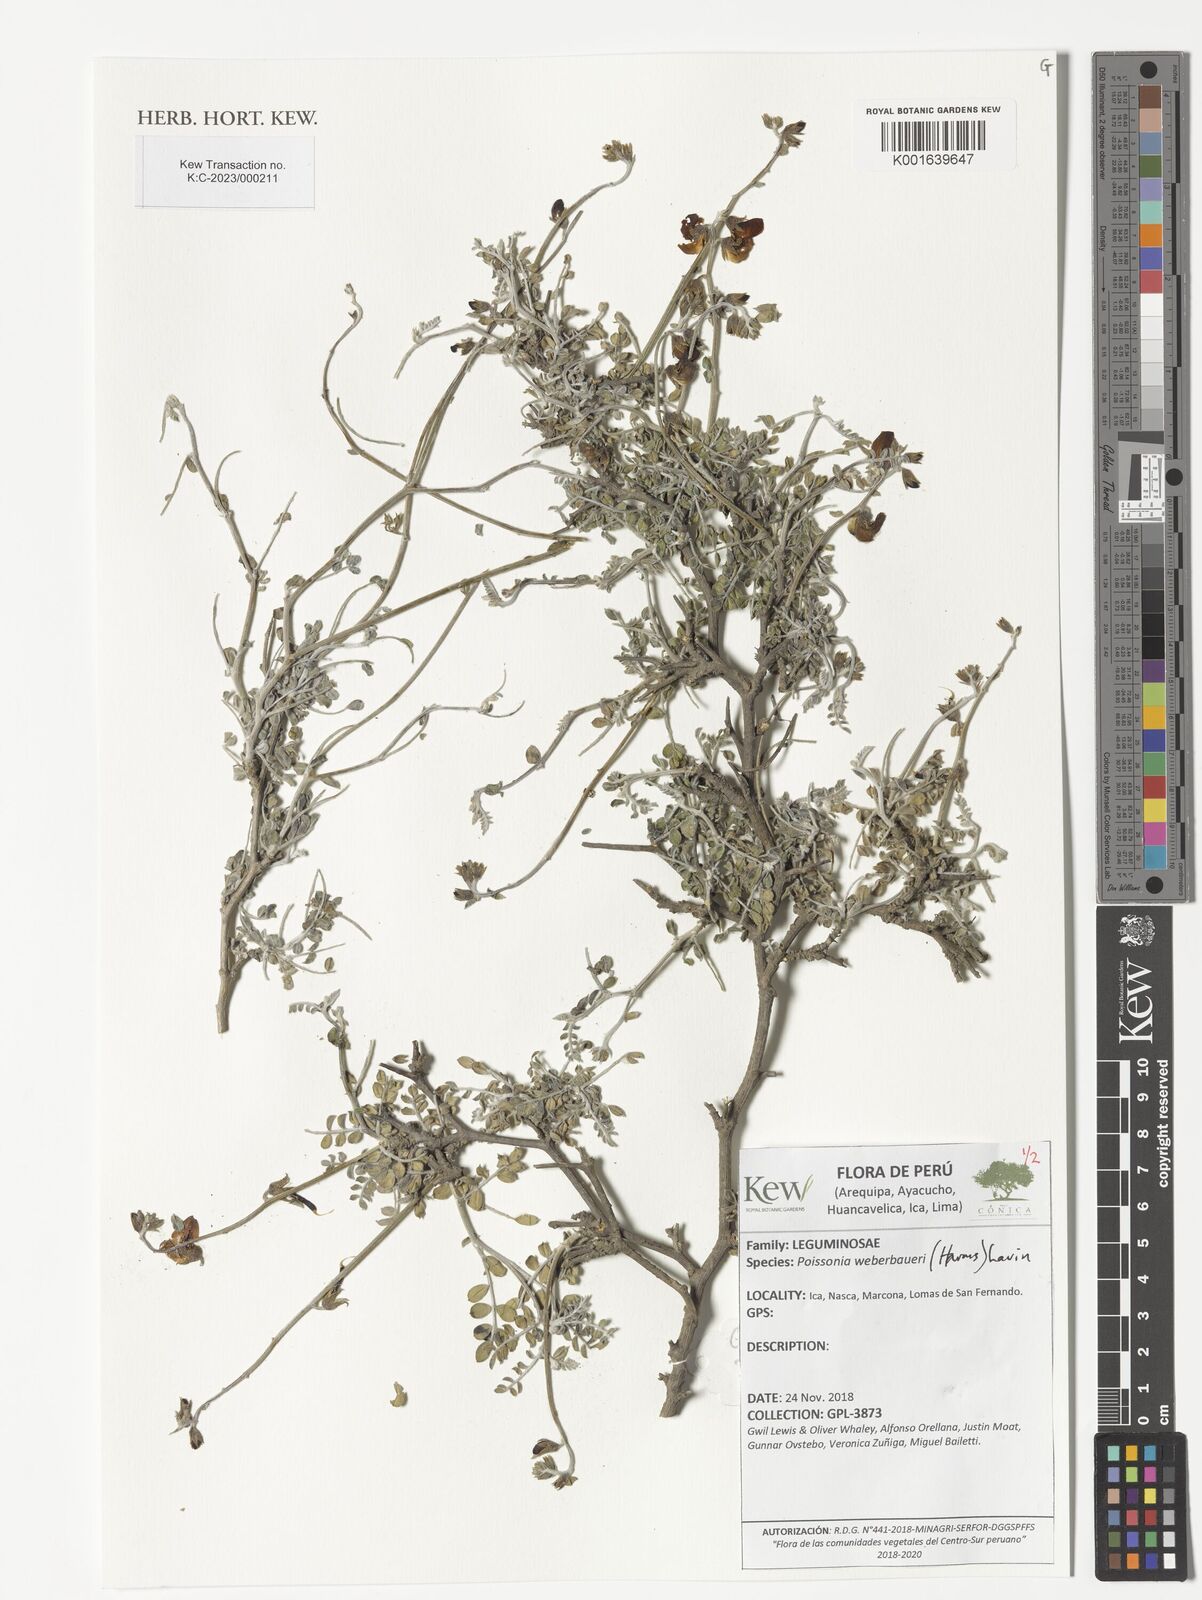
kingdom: Plantae
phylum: Tracheophyta
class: Magnoliopsida
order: Fabales
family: Fabaceae
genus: Poissonia
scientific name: Poissonia weberbaueri
